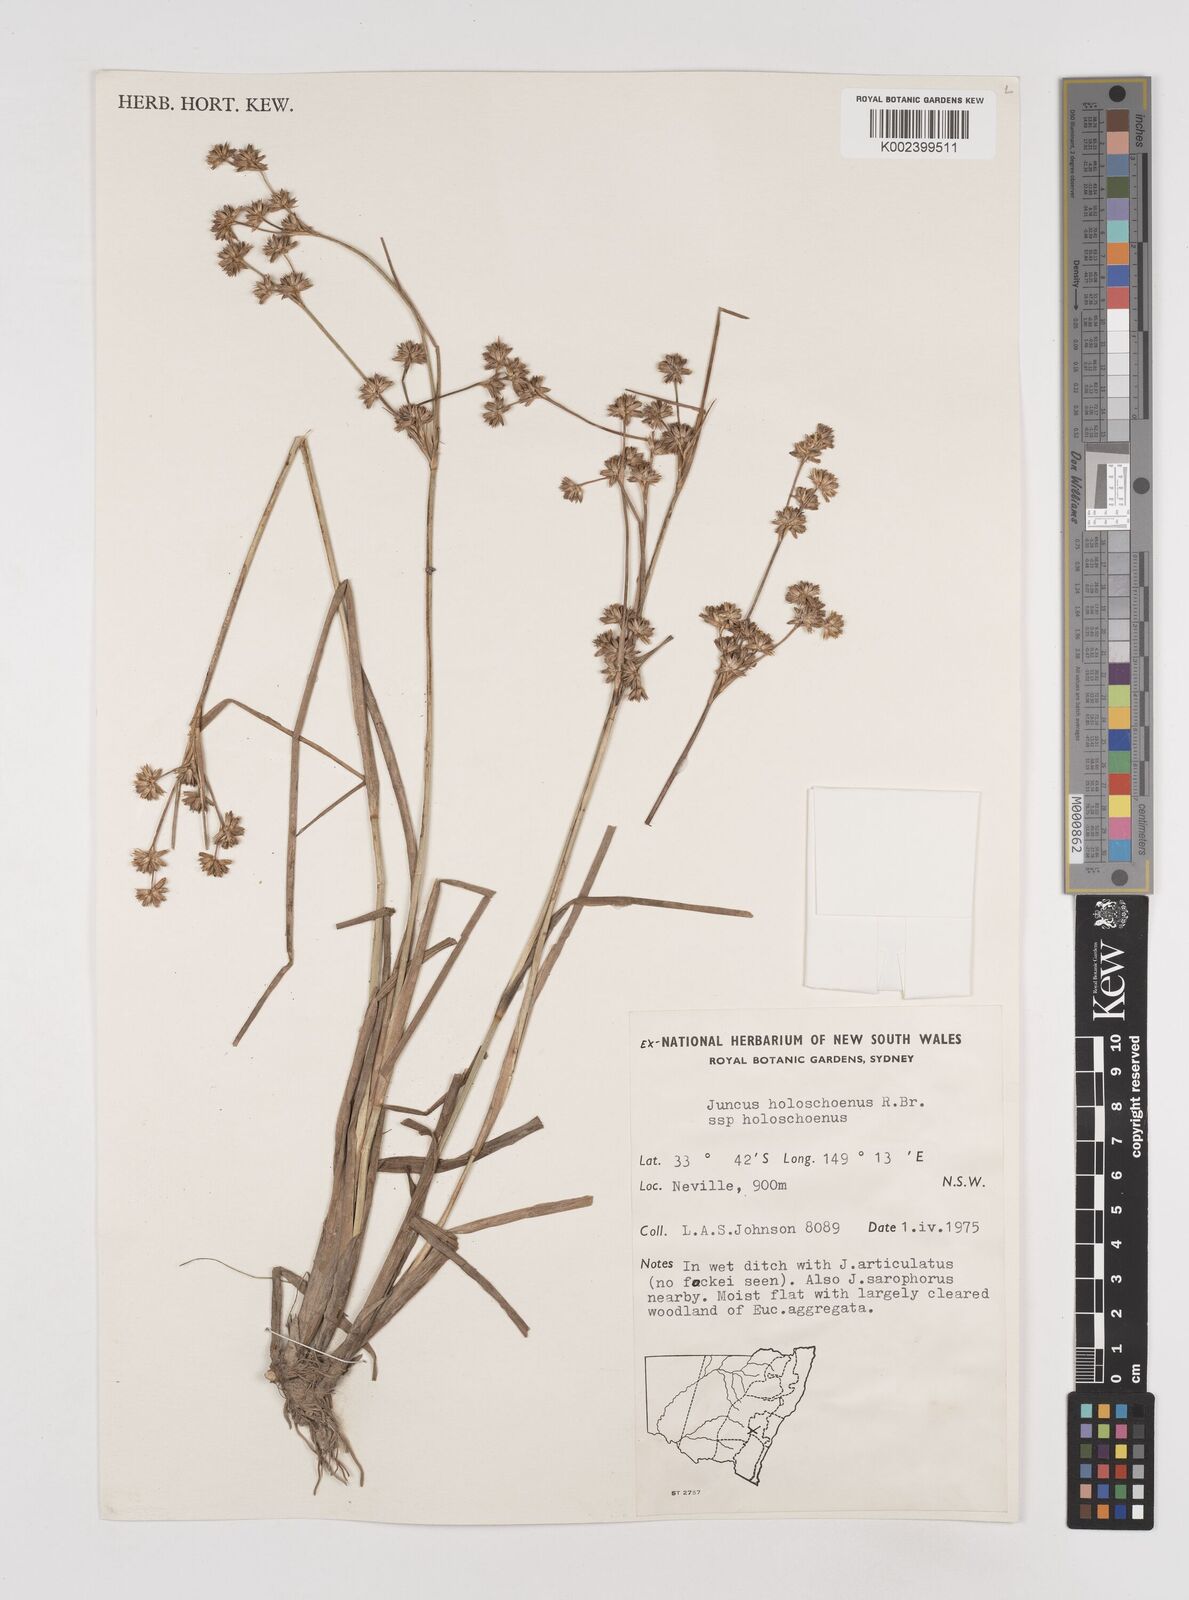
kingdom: Plantae
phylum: Tracheophyta
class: Liliopsida
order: Poales
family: Juncaceae
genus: Juncus
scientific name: Juncus holoschoenus
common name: Joint-leaf rush
